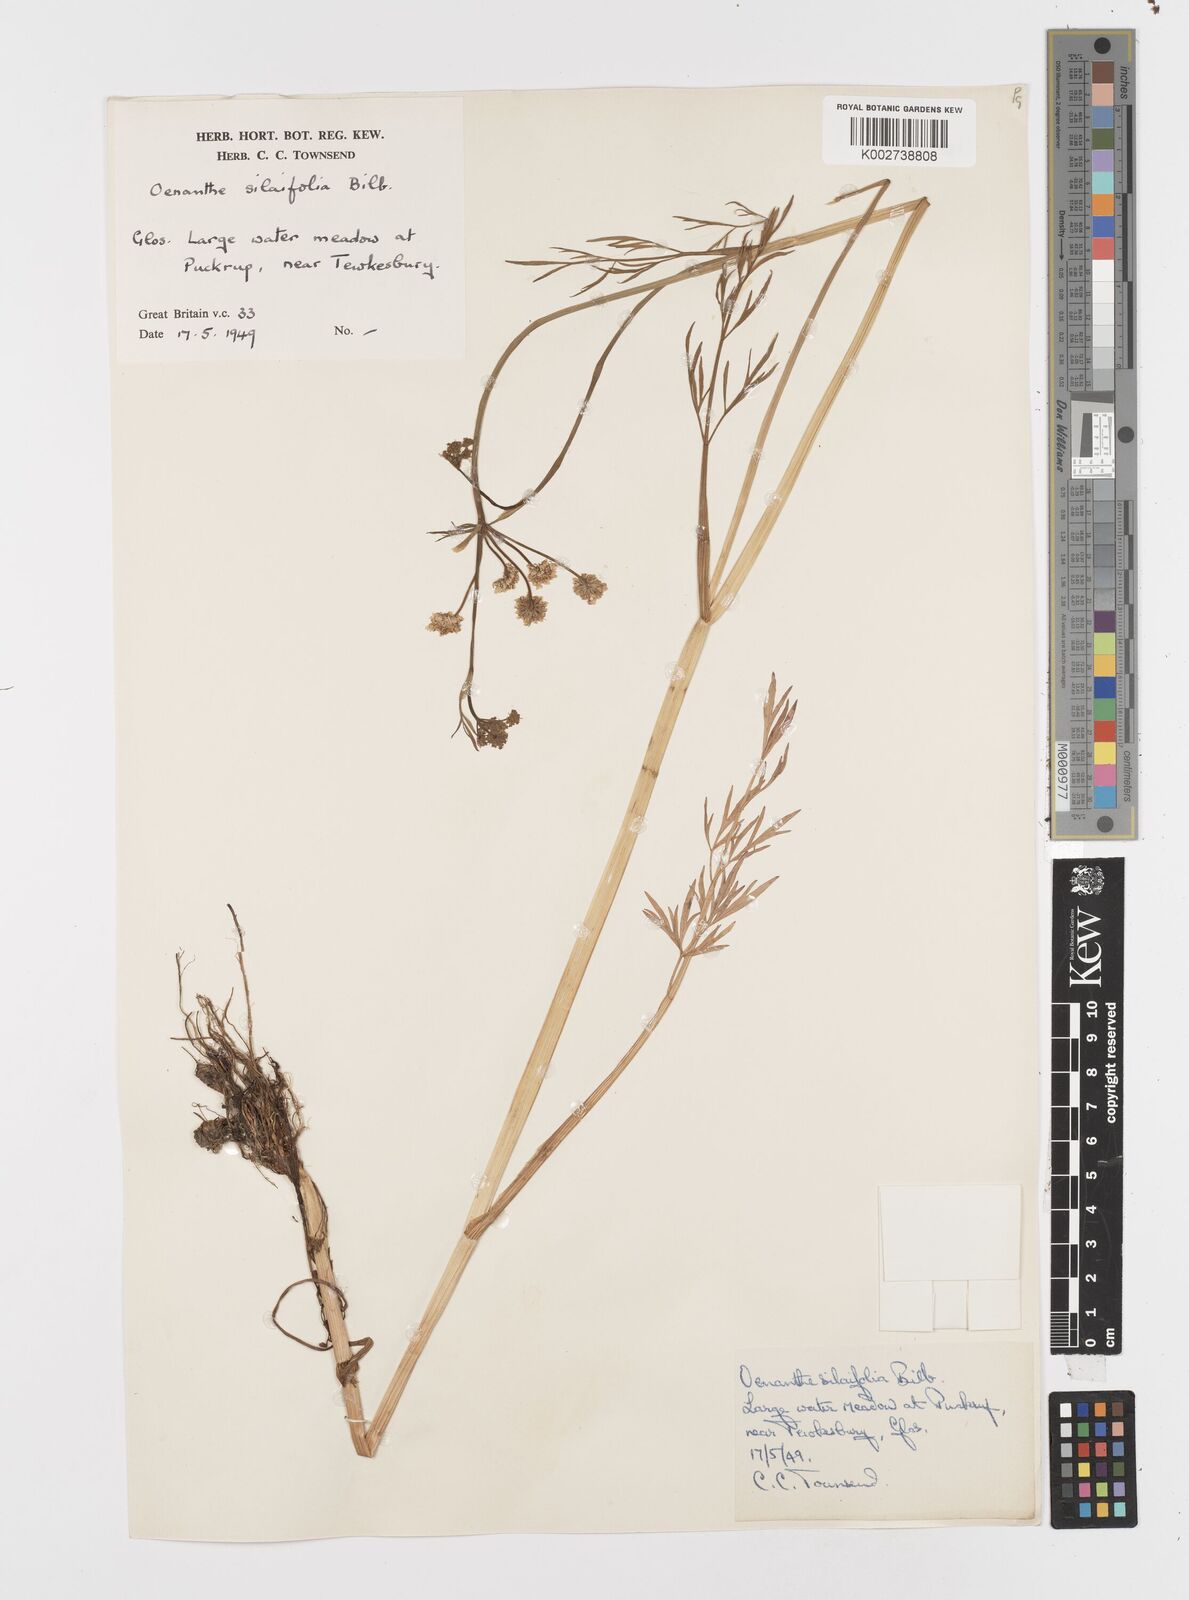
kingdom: Plantae
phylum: Tracheophyta
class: Magnoliopsida
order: Apiales
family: Apiaceae
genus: Oenanthe
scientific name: Oenanthe silaifolia
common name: Narrow-leaved water-dropwort
